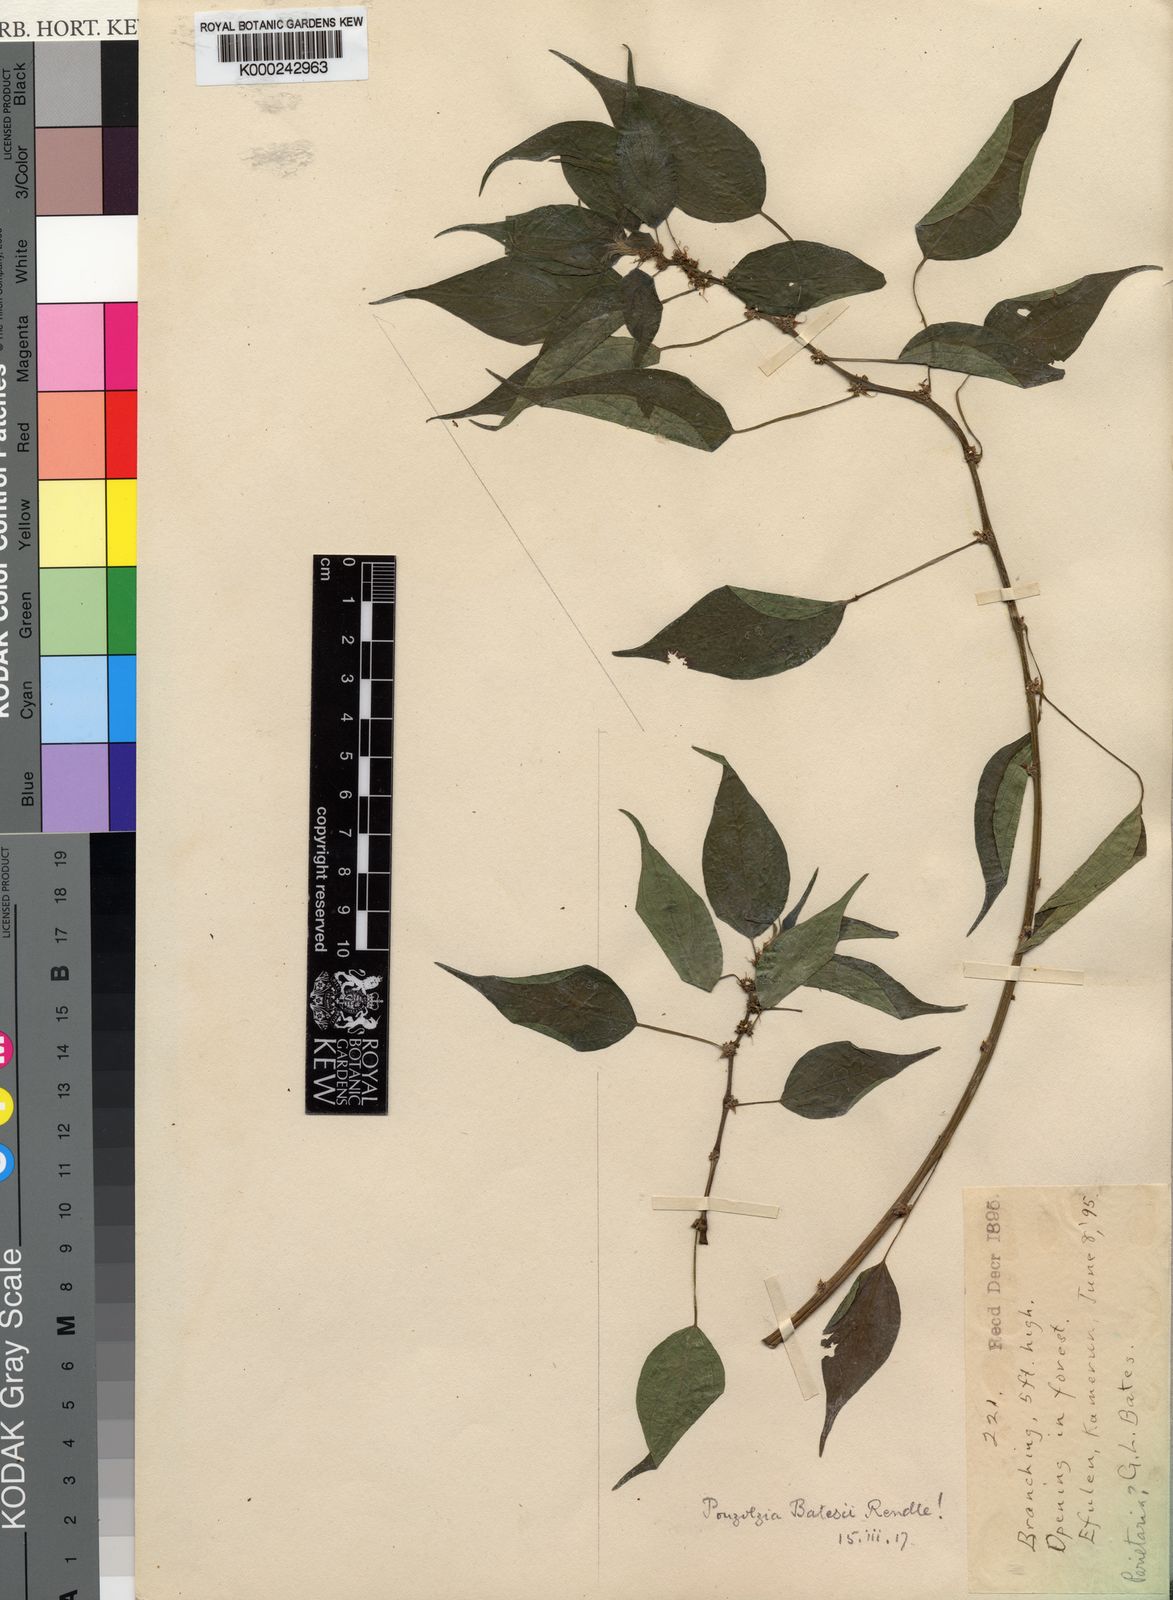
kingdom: Plantae
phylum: Tracheophyta
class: Magnoliopsida
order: Rosales
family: Urticaceae
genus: Pouzolzia
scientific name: Pouzolzia denudata
